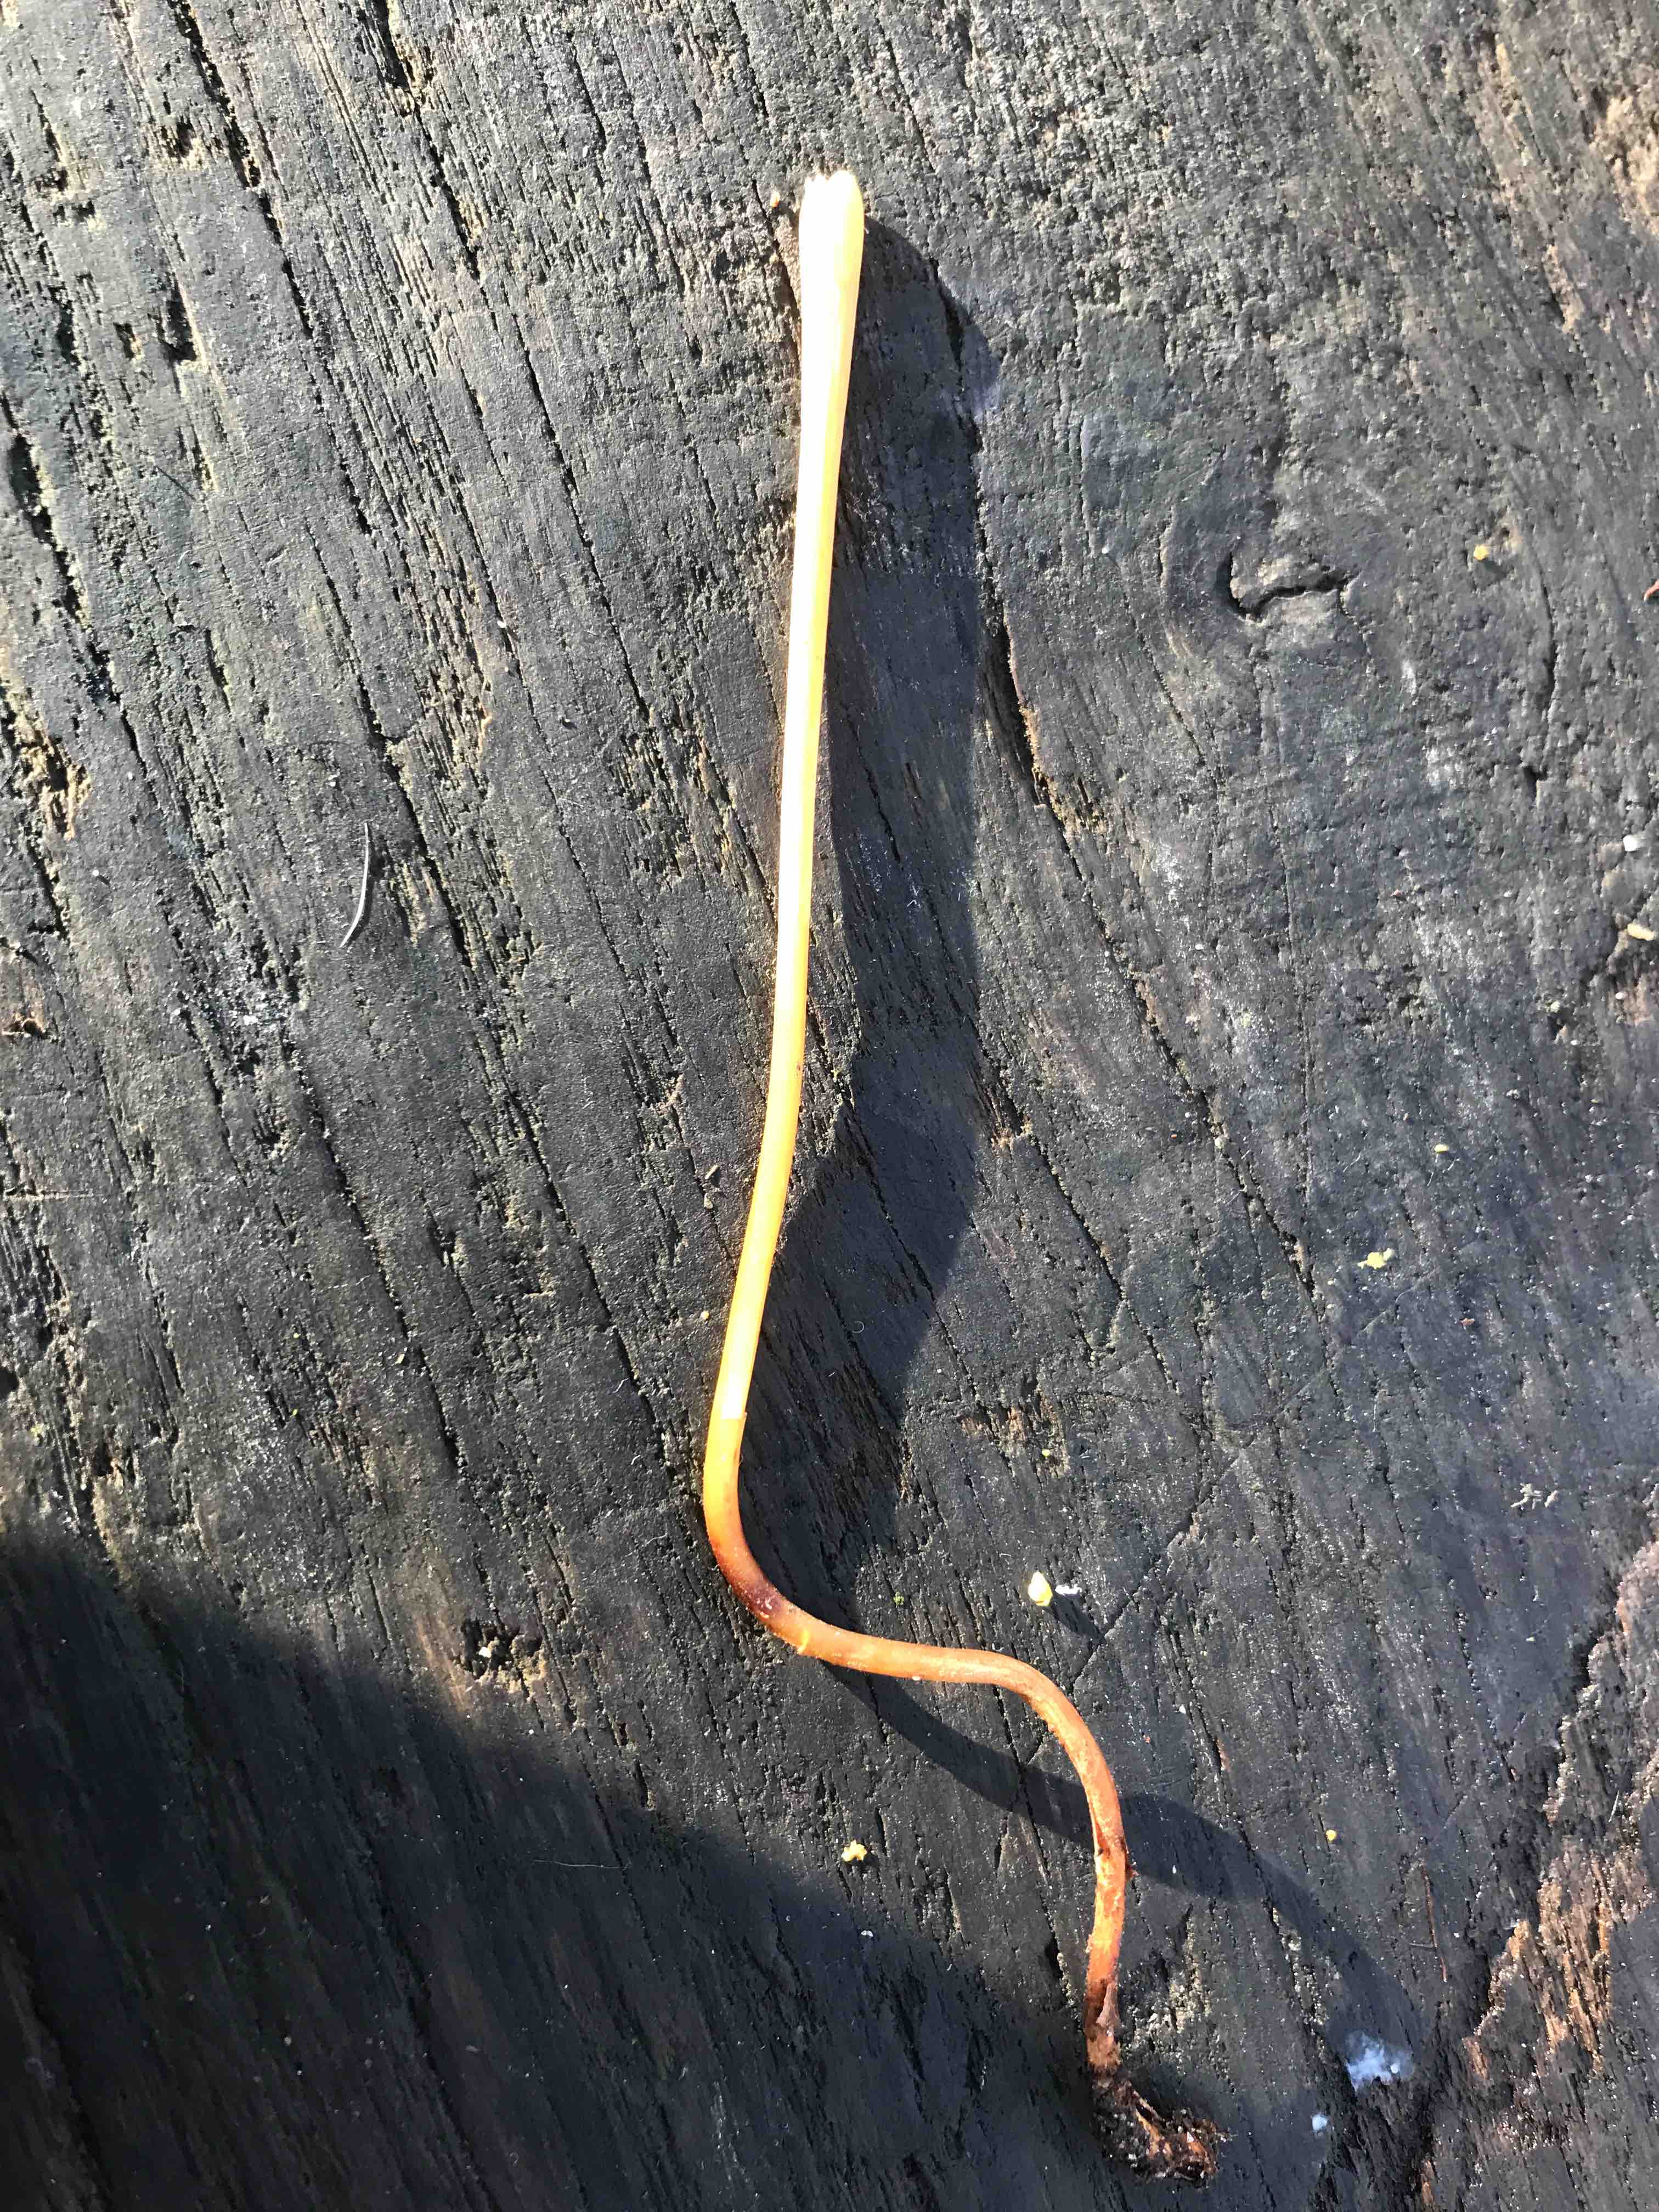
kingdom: Fungi
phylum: Basidiomycota
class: Agaricomycetes
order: Agaricales
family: Typhulaceae
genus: Typhula
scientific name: Typhula fistulosa
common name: pibet rørkølle
